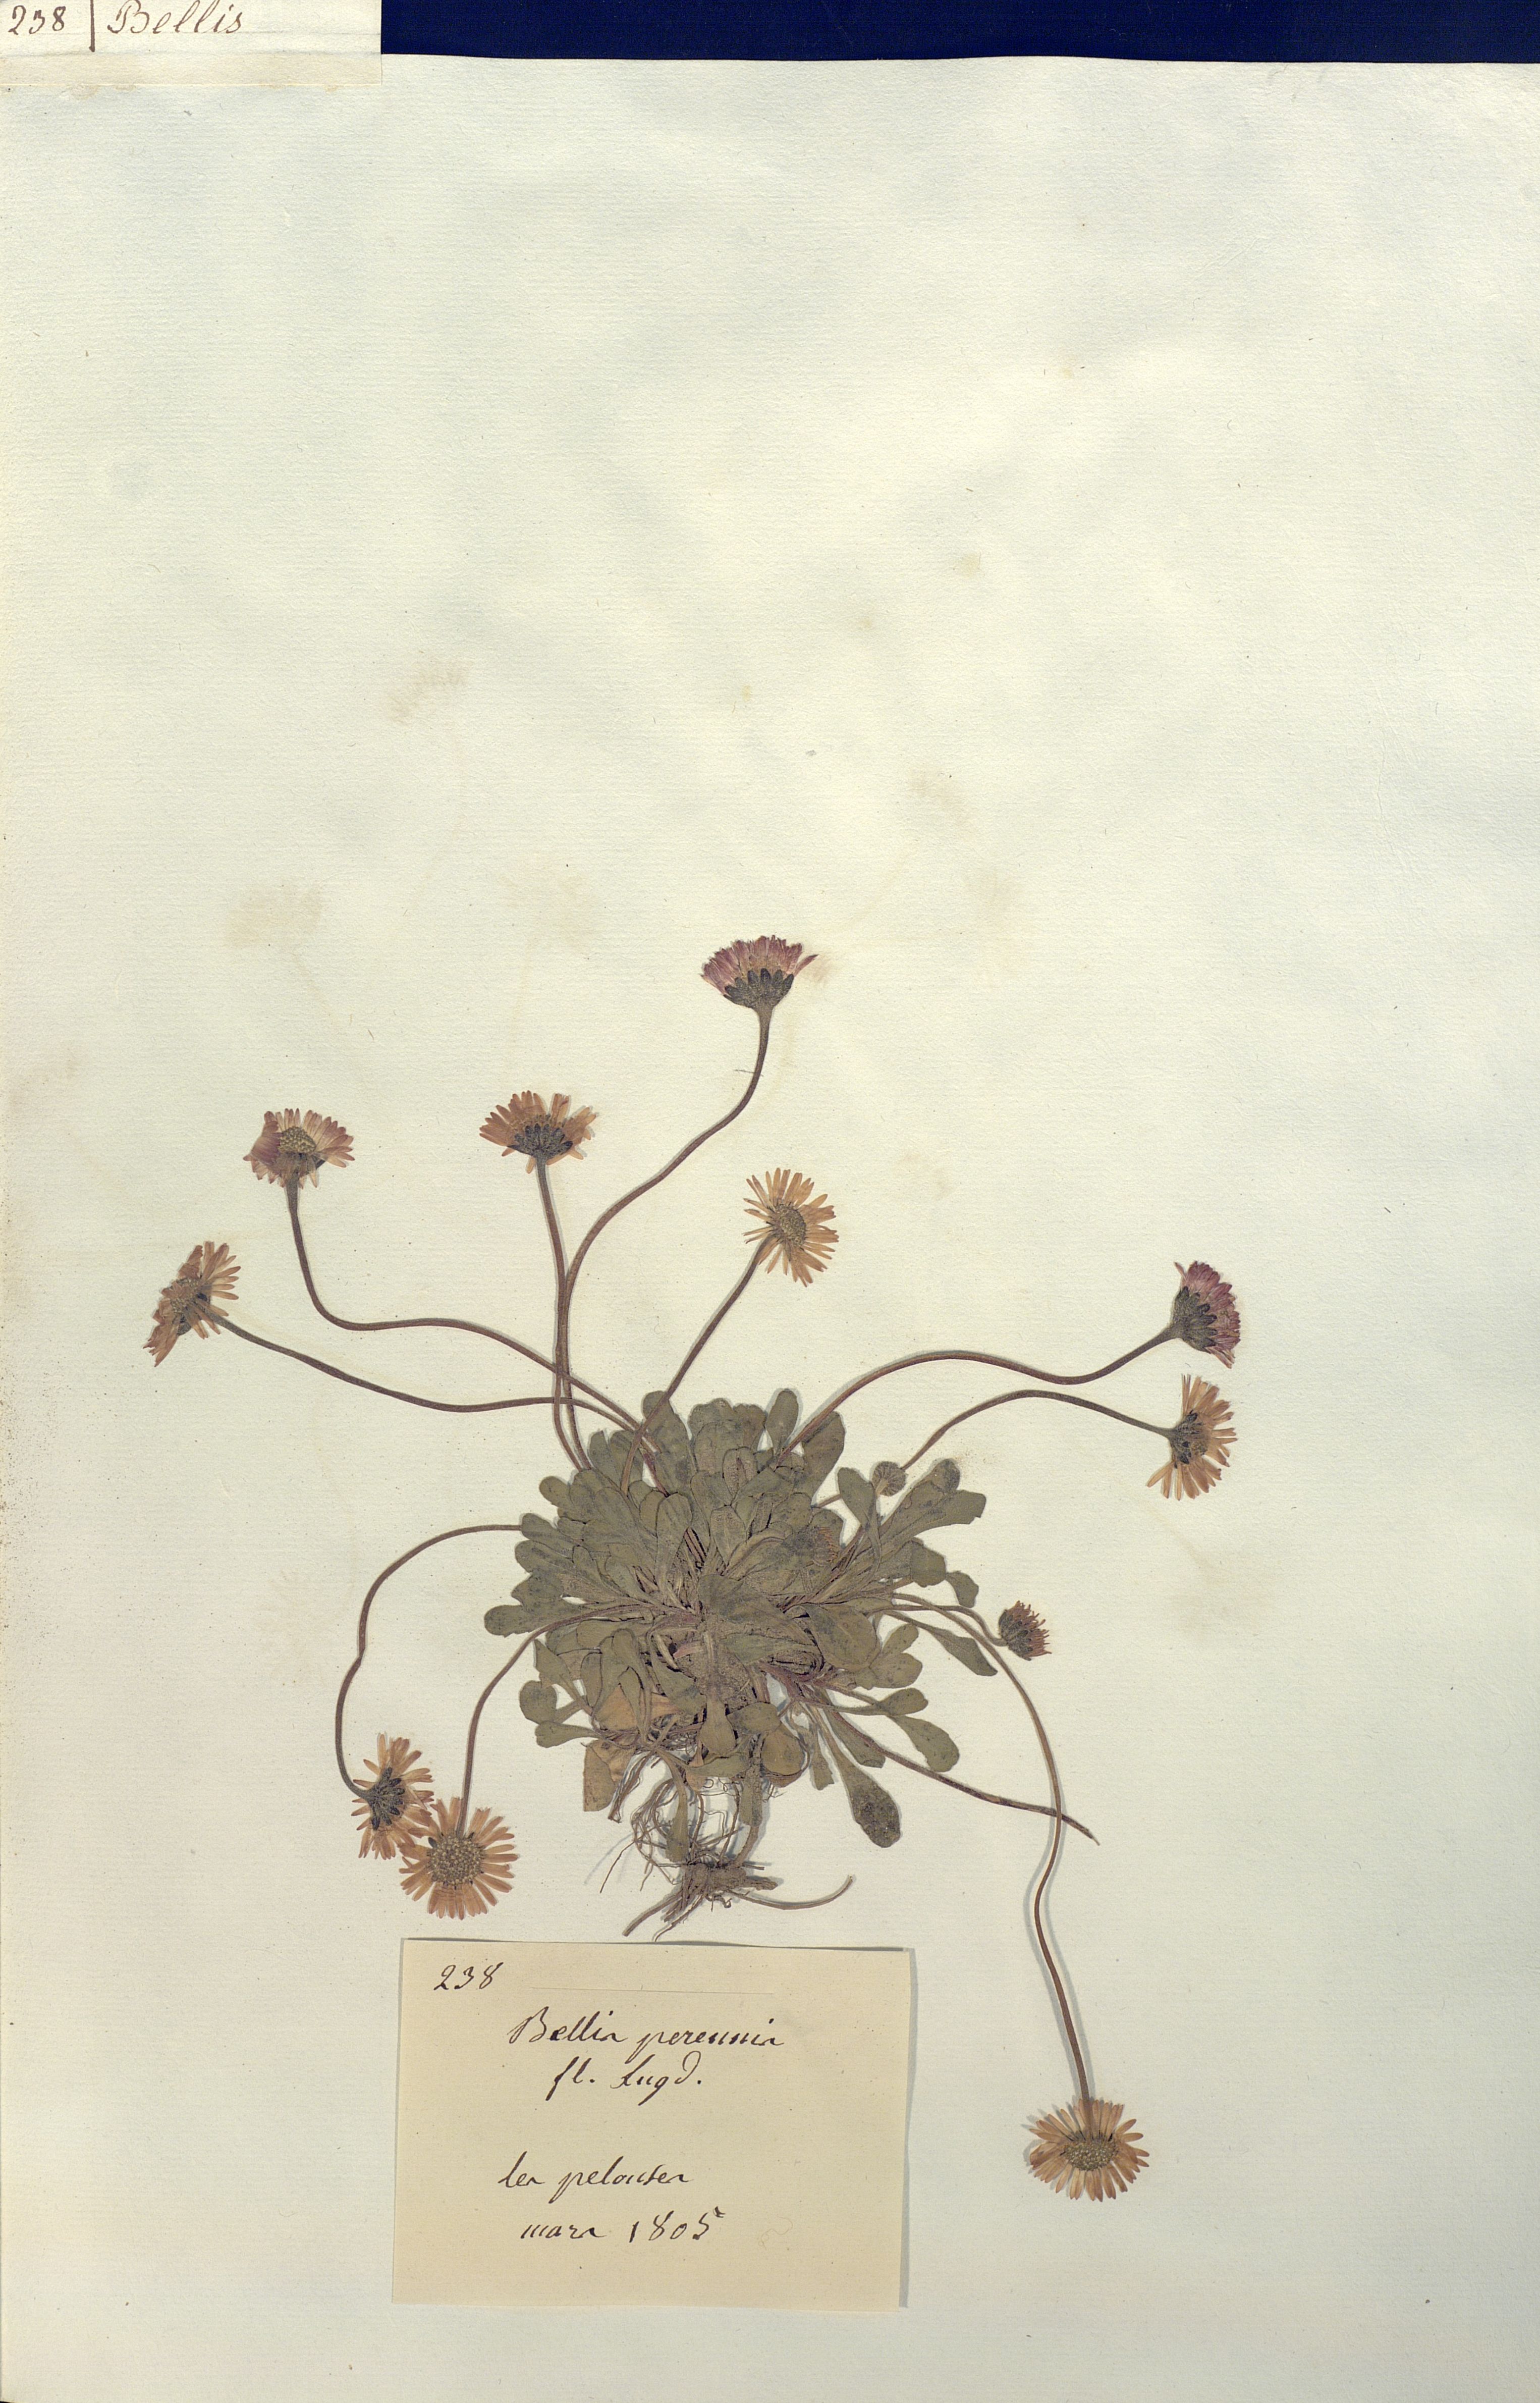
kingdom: Plantae
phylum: Tracheophyta
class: Magnoliopsida
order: Asterales
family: Asteraceae
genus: Bellis
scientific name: Bellis perennis
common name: Lawndaisy
